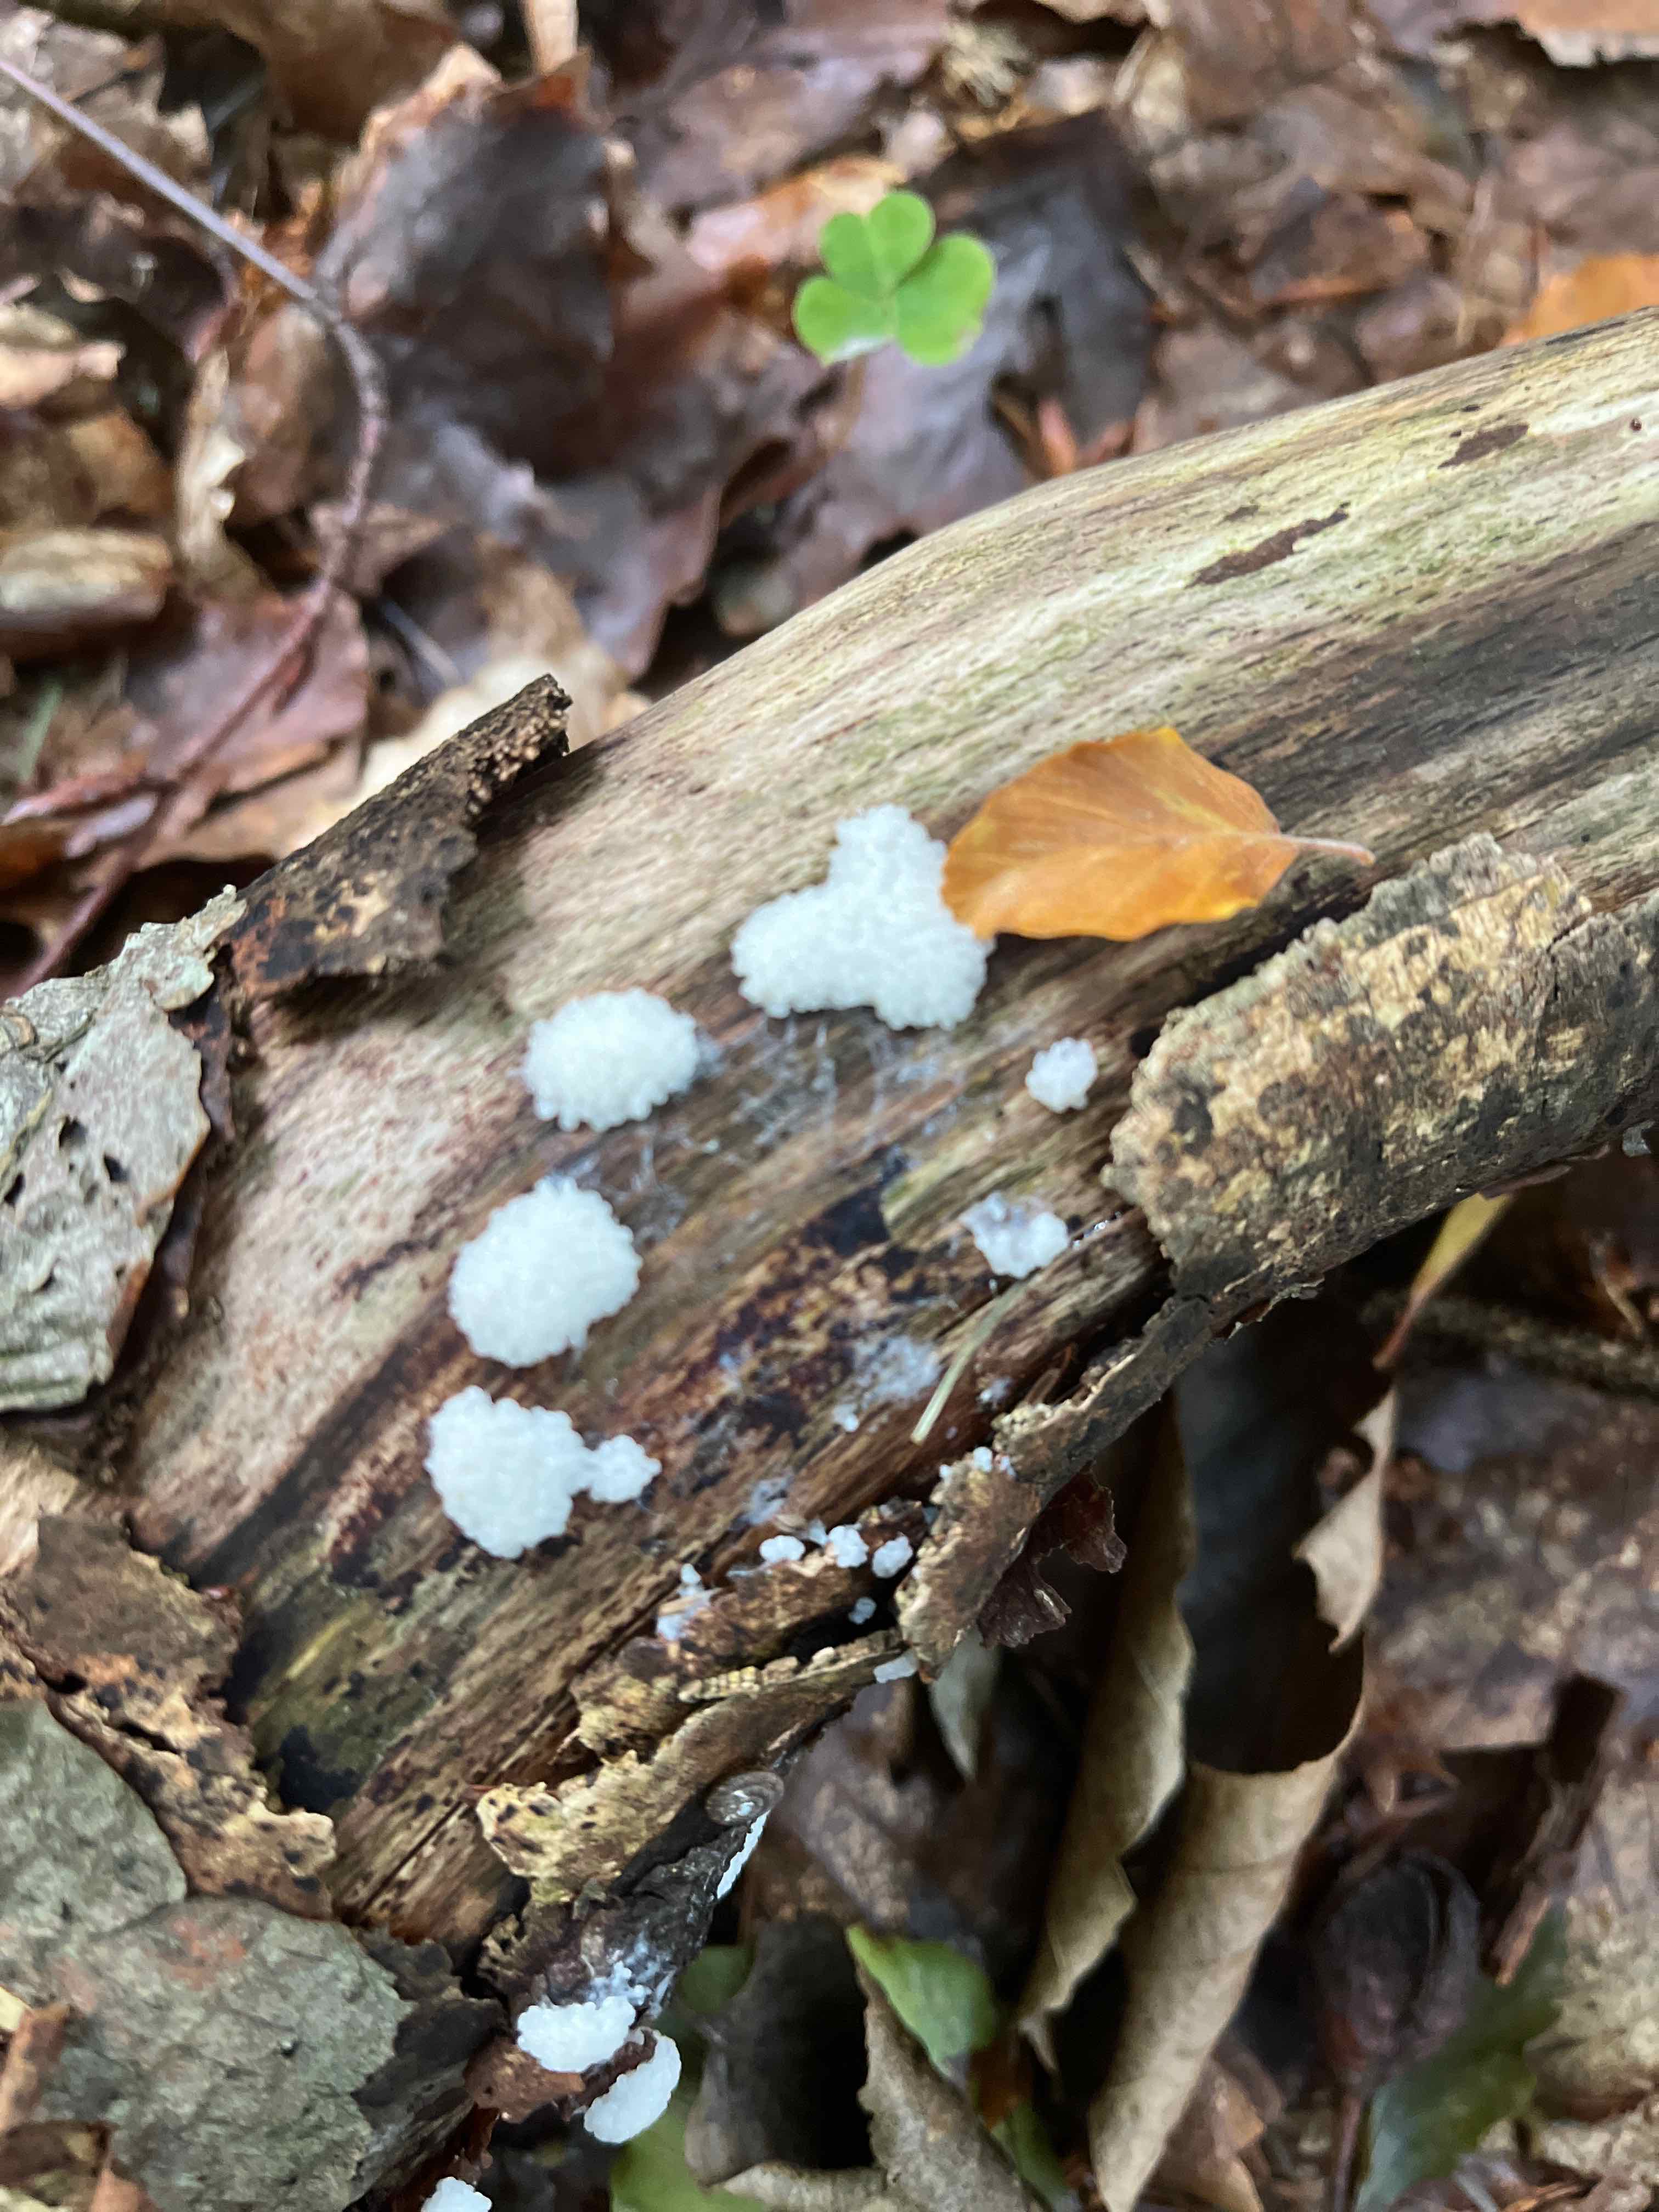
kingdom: Protozoa
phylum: Mycetozoa
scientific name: Mycetozoa
